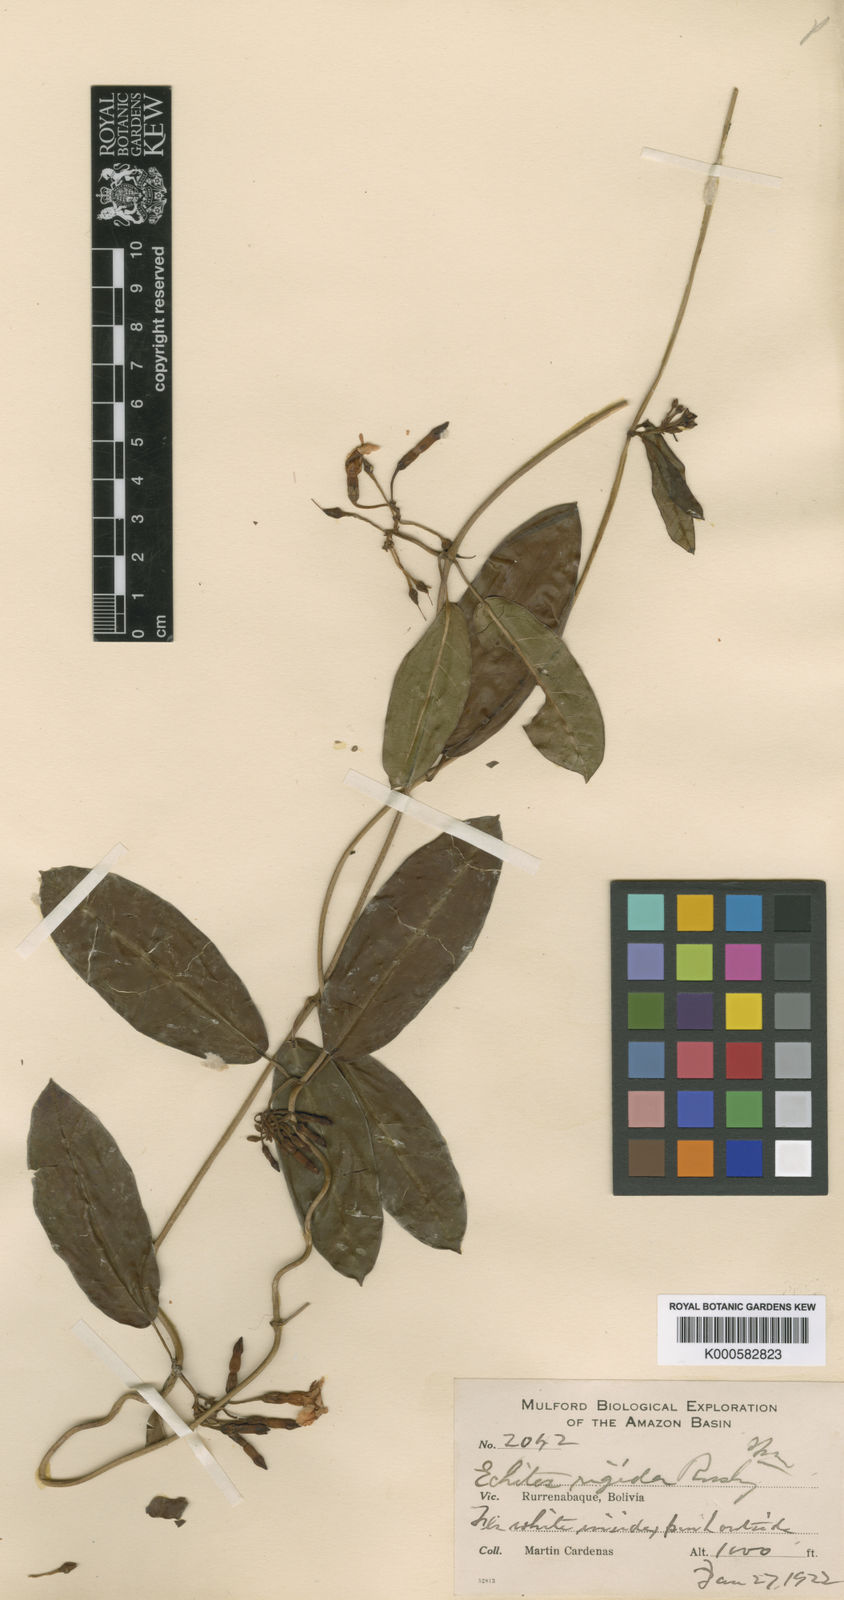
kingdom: Plantae
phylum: Tracheophyta
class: Magnoliopsida
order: Gentianales
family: Apocynaceae
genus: Mesechites
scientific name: Mesechites
